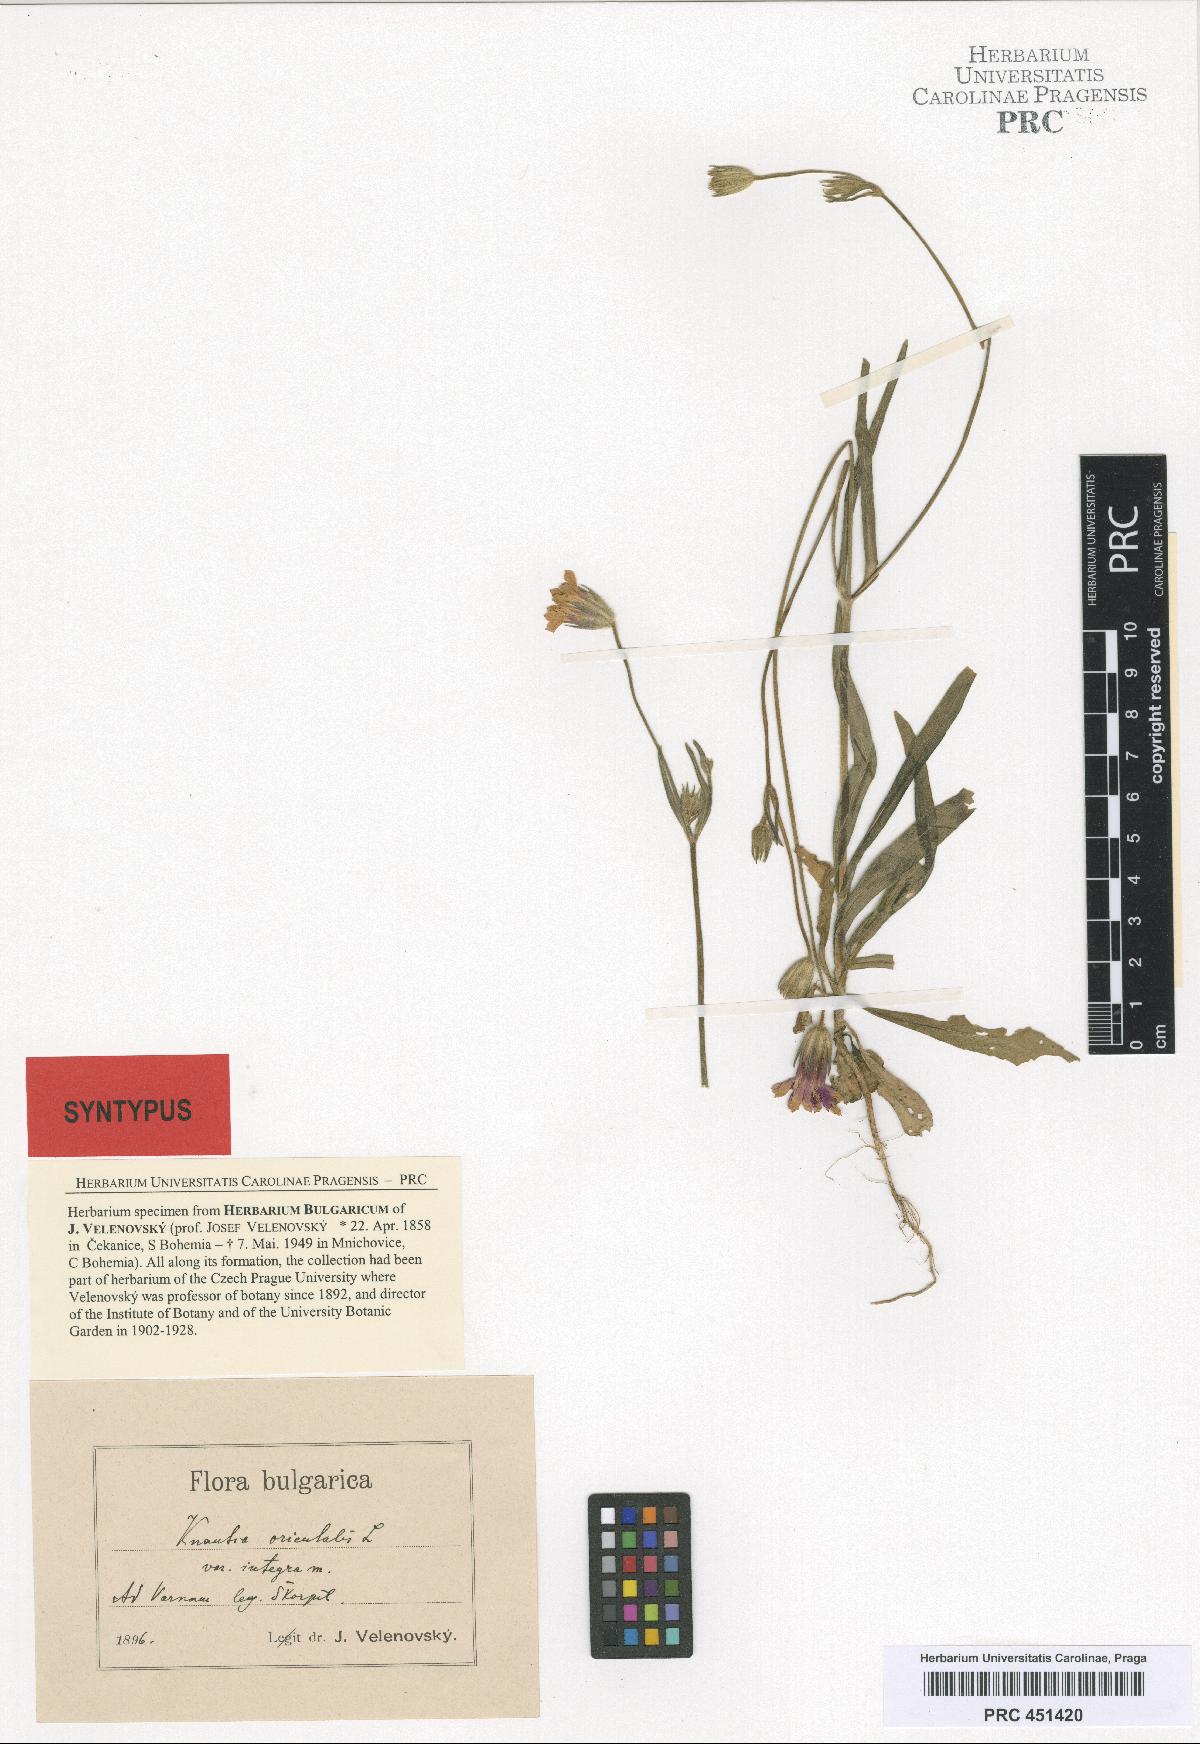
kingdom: Plantae
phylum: Tracheophyta
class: Magnoliopsida
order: Dipsacales
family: Caprifoliaceae
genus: Knautia
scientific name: Knautia orientalis
